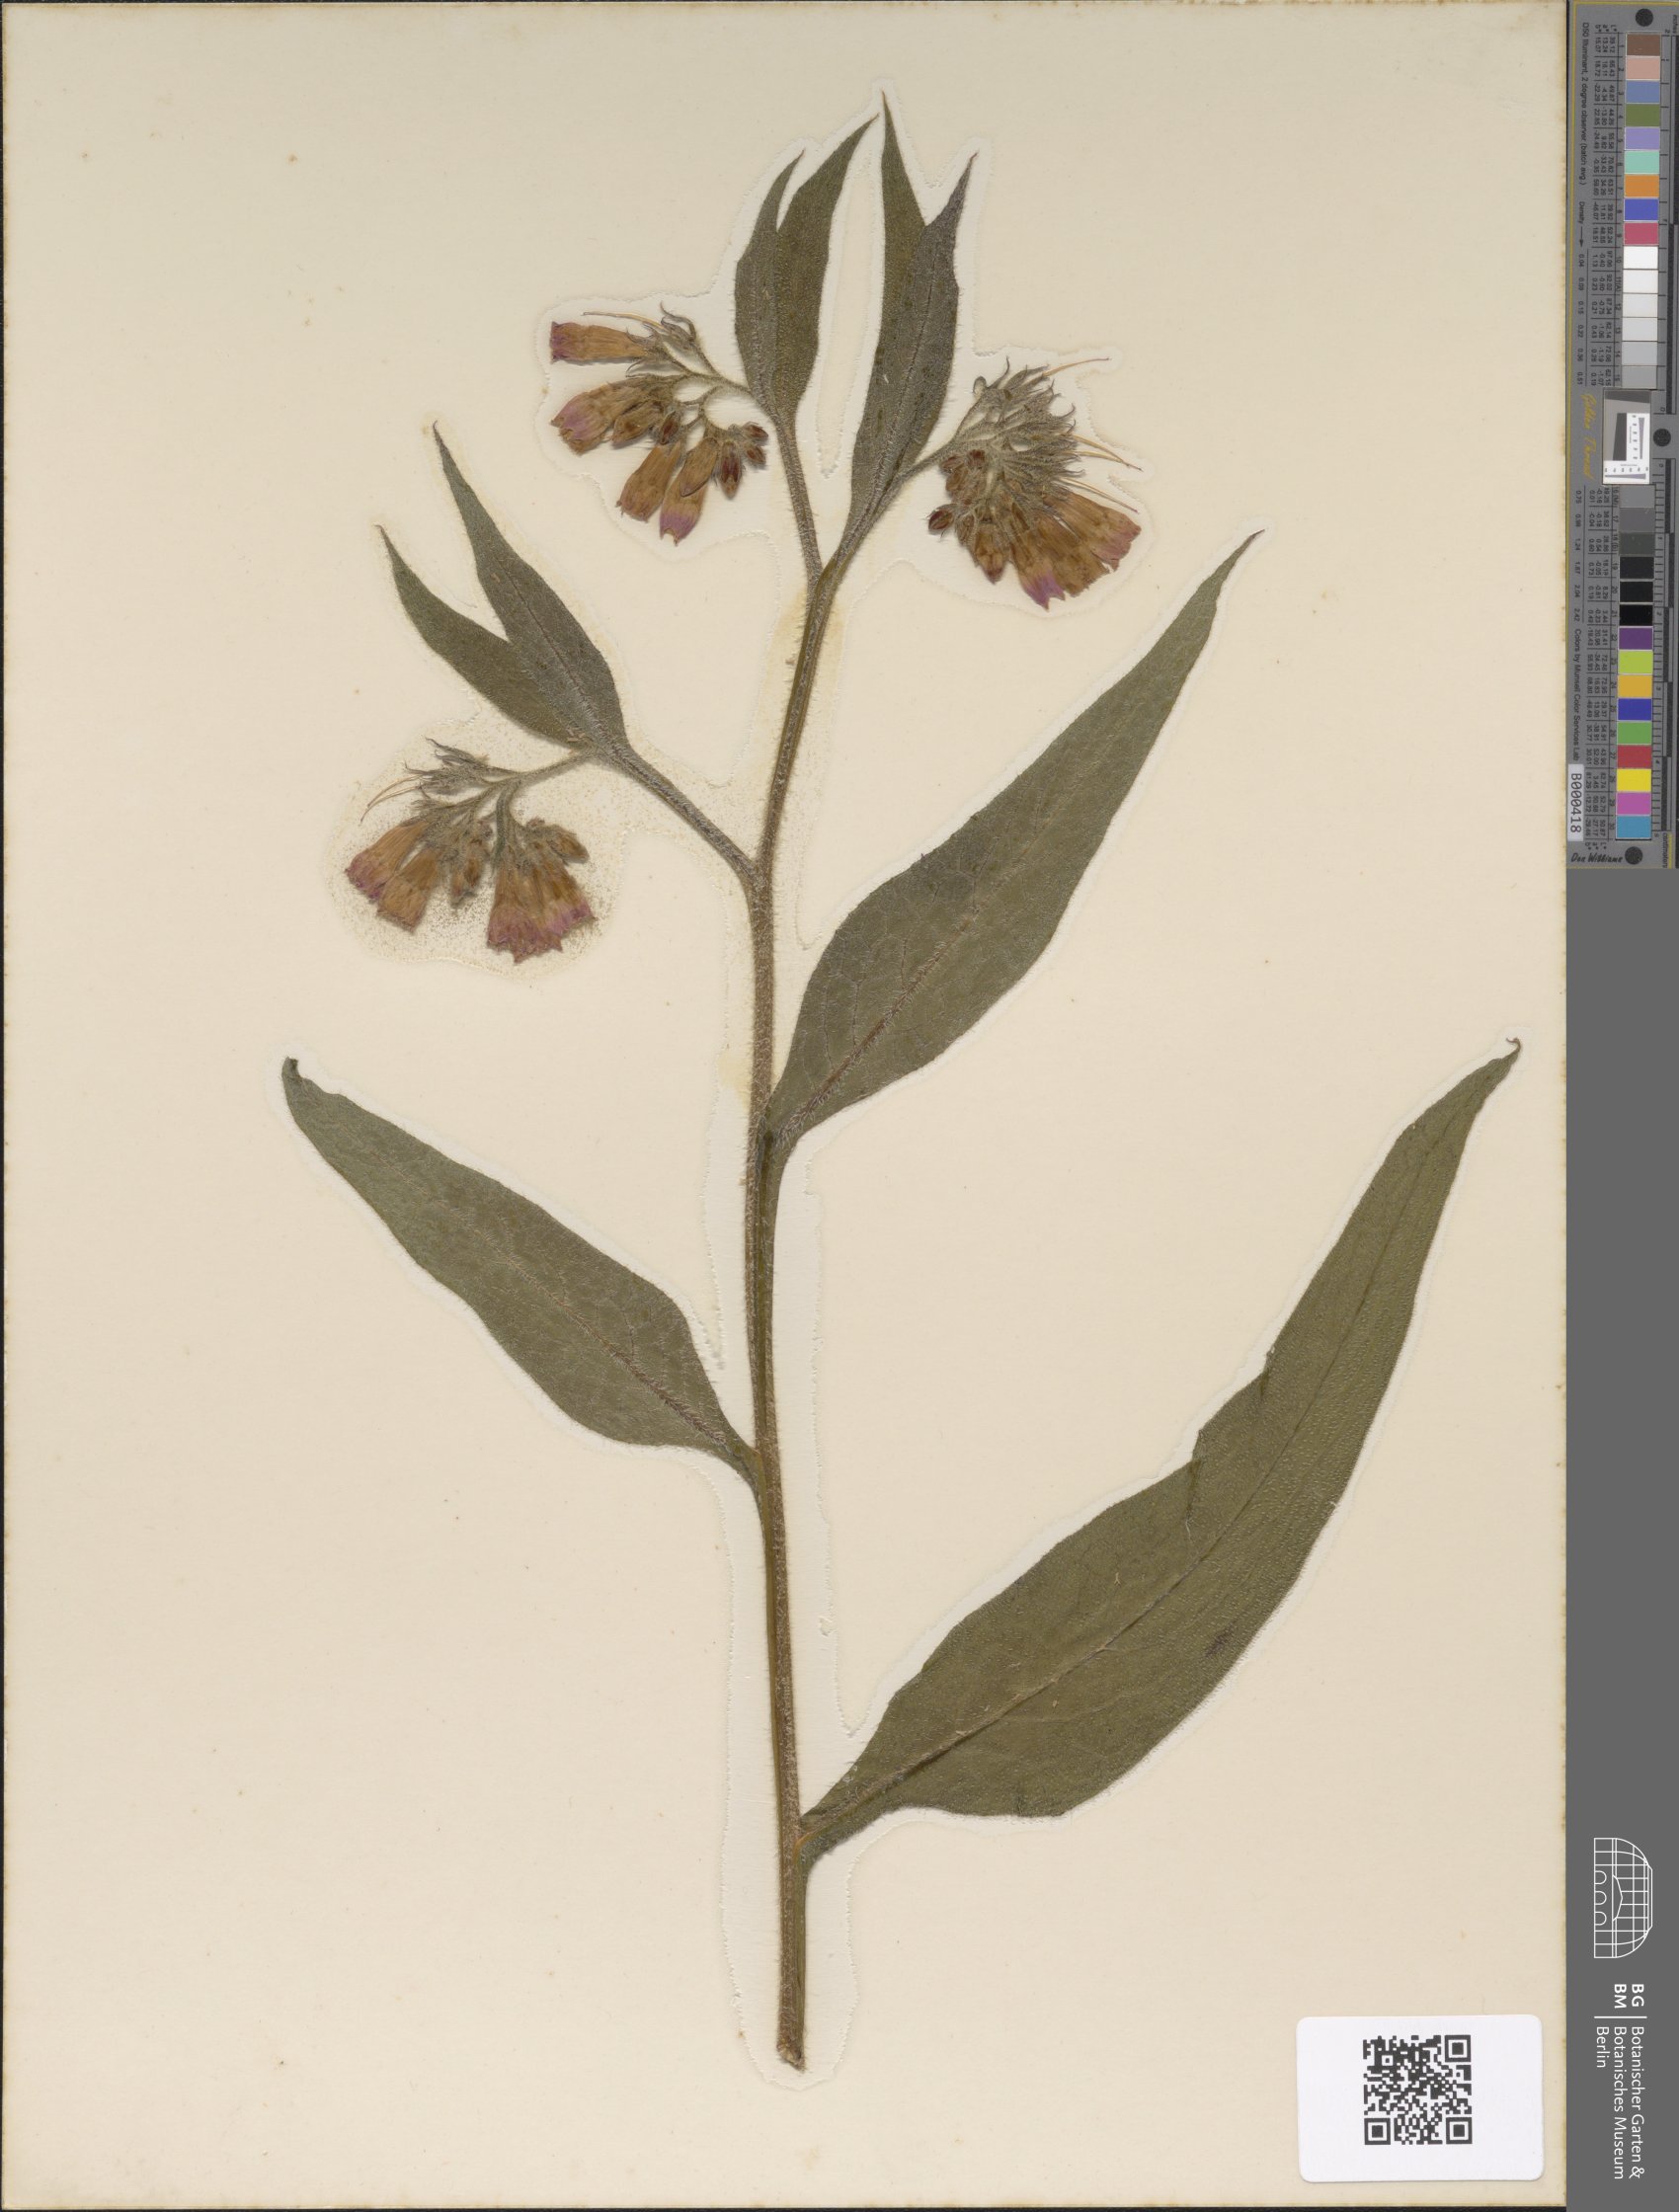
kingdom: Plantae
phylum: Tracheophyta
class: Magnoliopsida
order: Boraginales
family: Boraginaceae
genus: Symphytum
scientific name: Symphytum officinale
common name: Common comfrey
